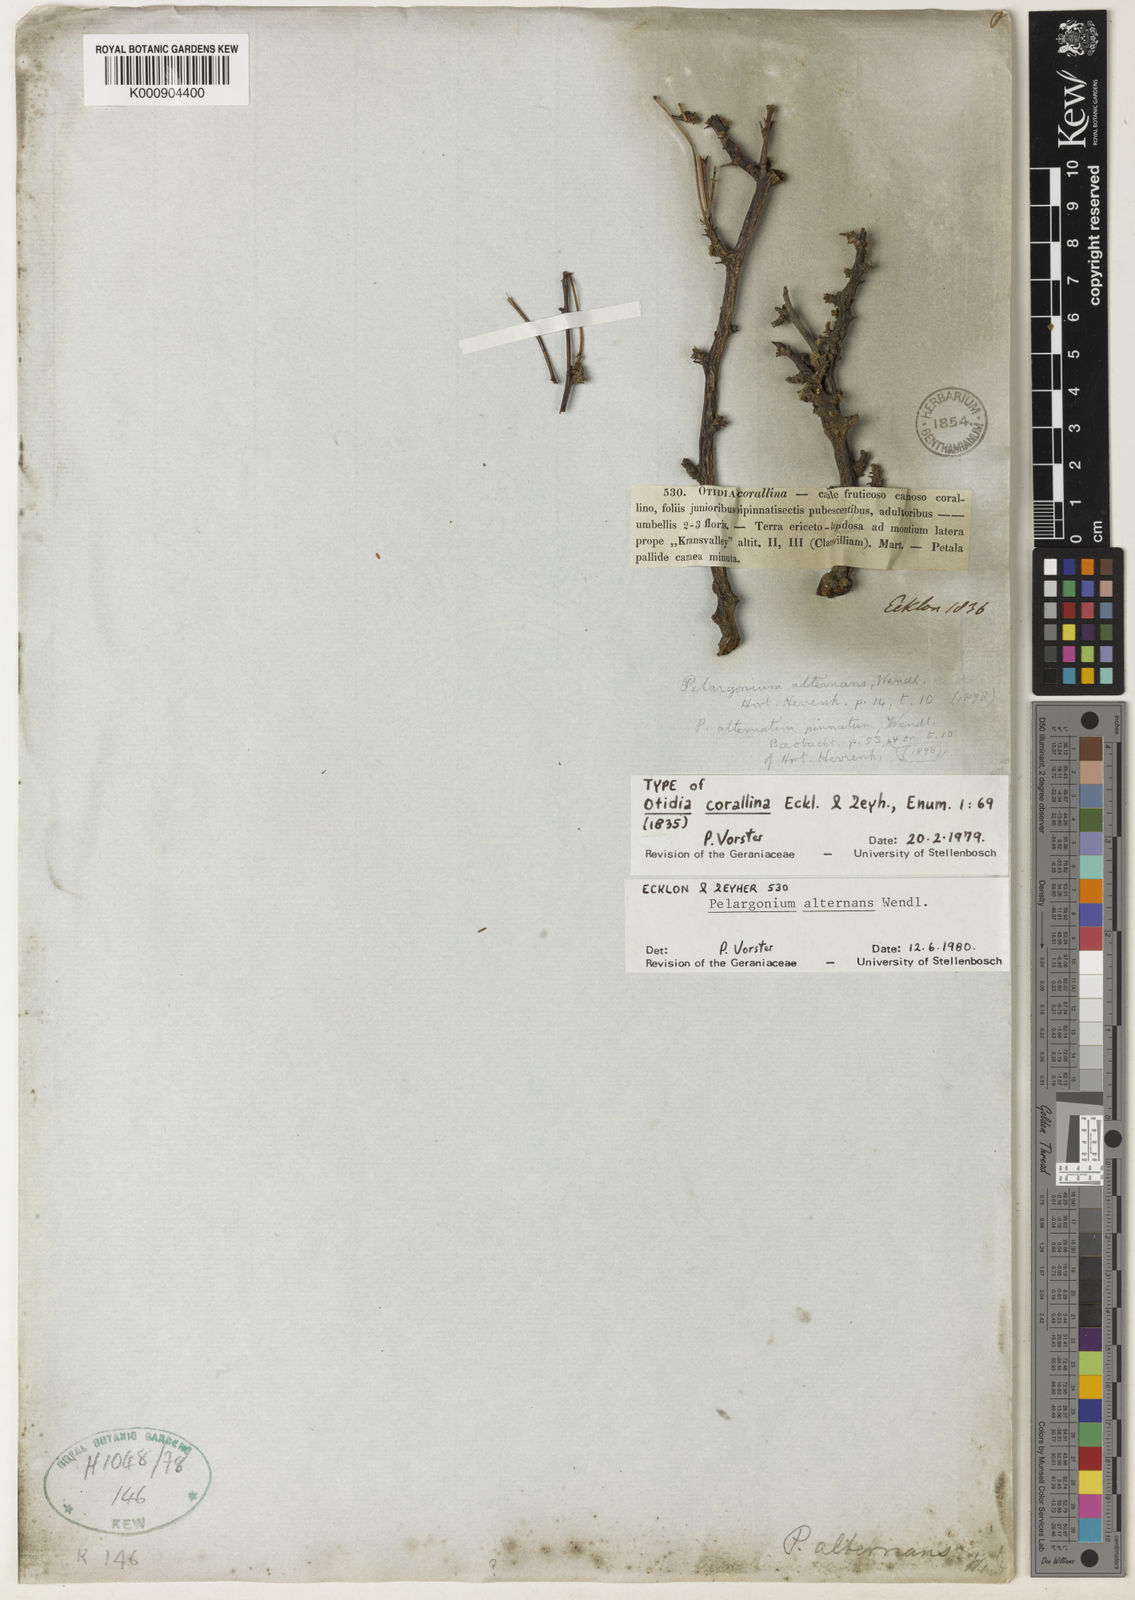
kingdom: Plantae
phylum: Tracheophyta
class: Magnoliopsida
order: Geraniales
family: Geraniaceae
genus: Pelargonium
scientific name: Pelargonium alternans
